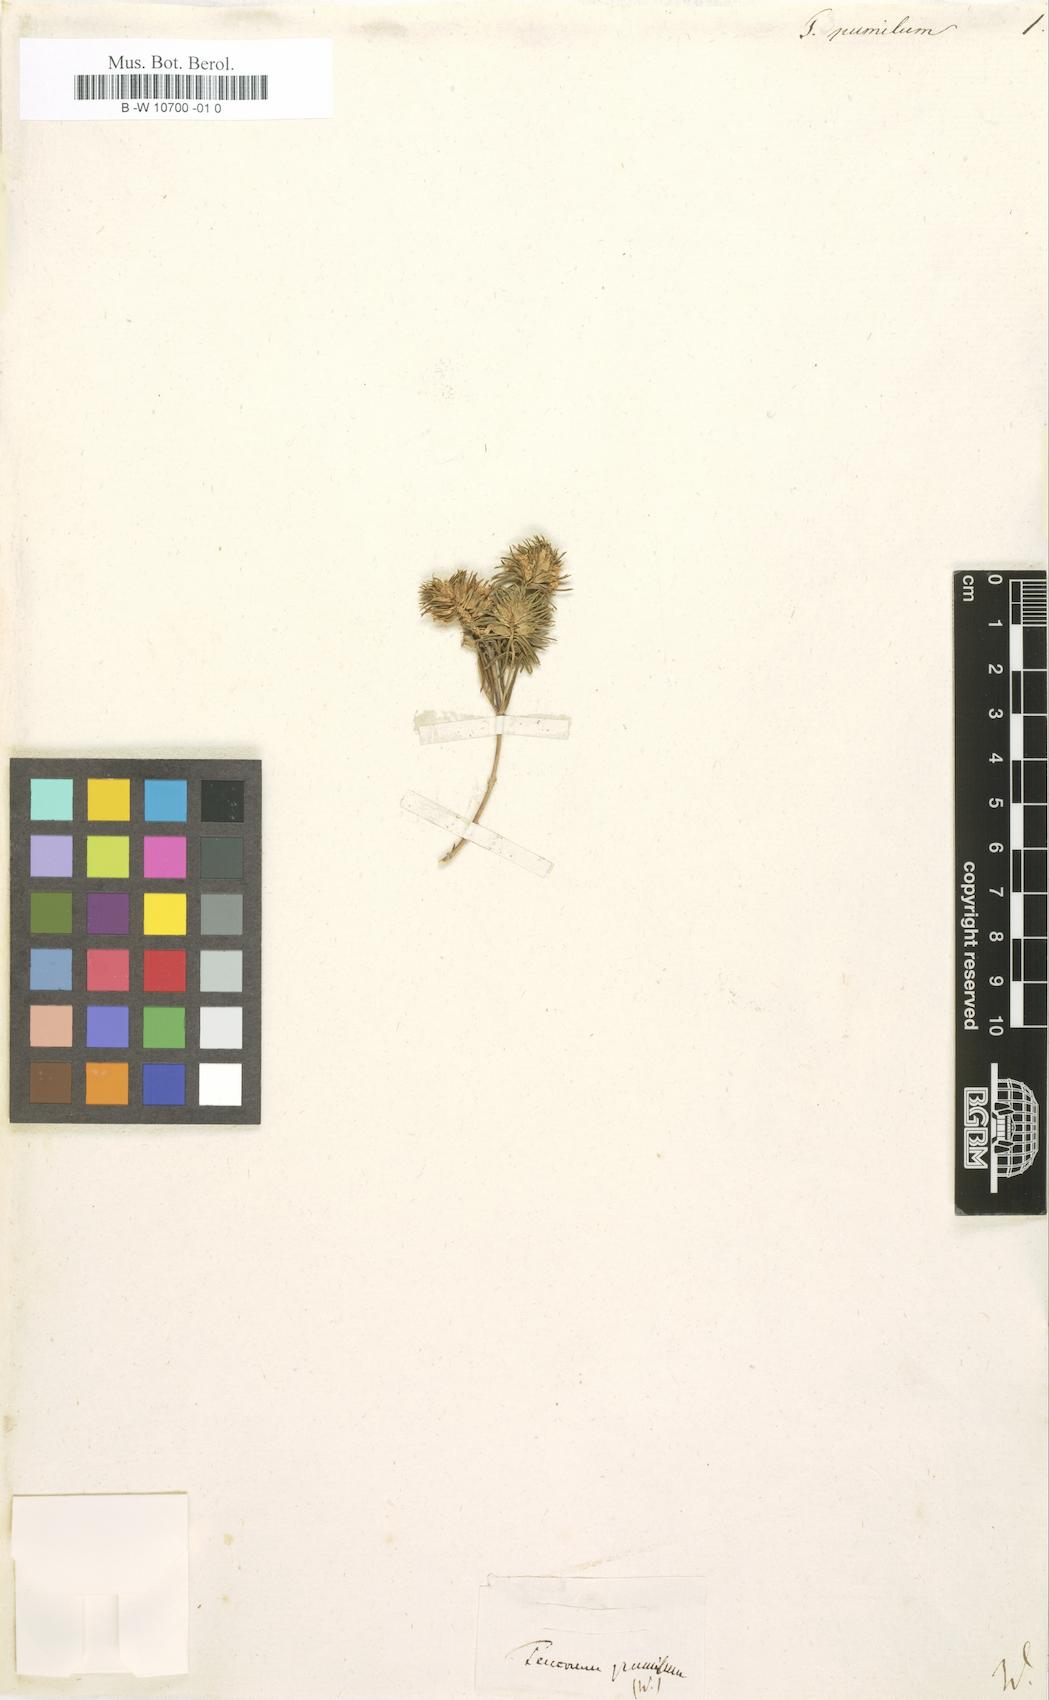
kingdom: Plantae
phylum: Tracheophyta
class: Magnoliopsida
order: Lamiales
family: Lamiaceae
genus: Teucrium
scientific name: Teucrium pumilum
